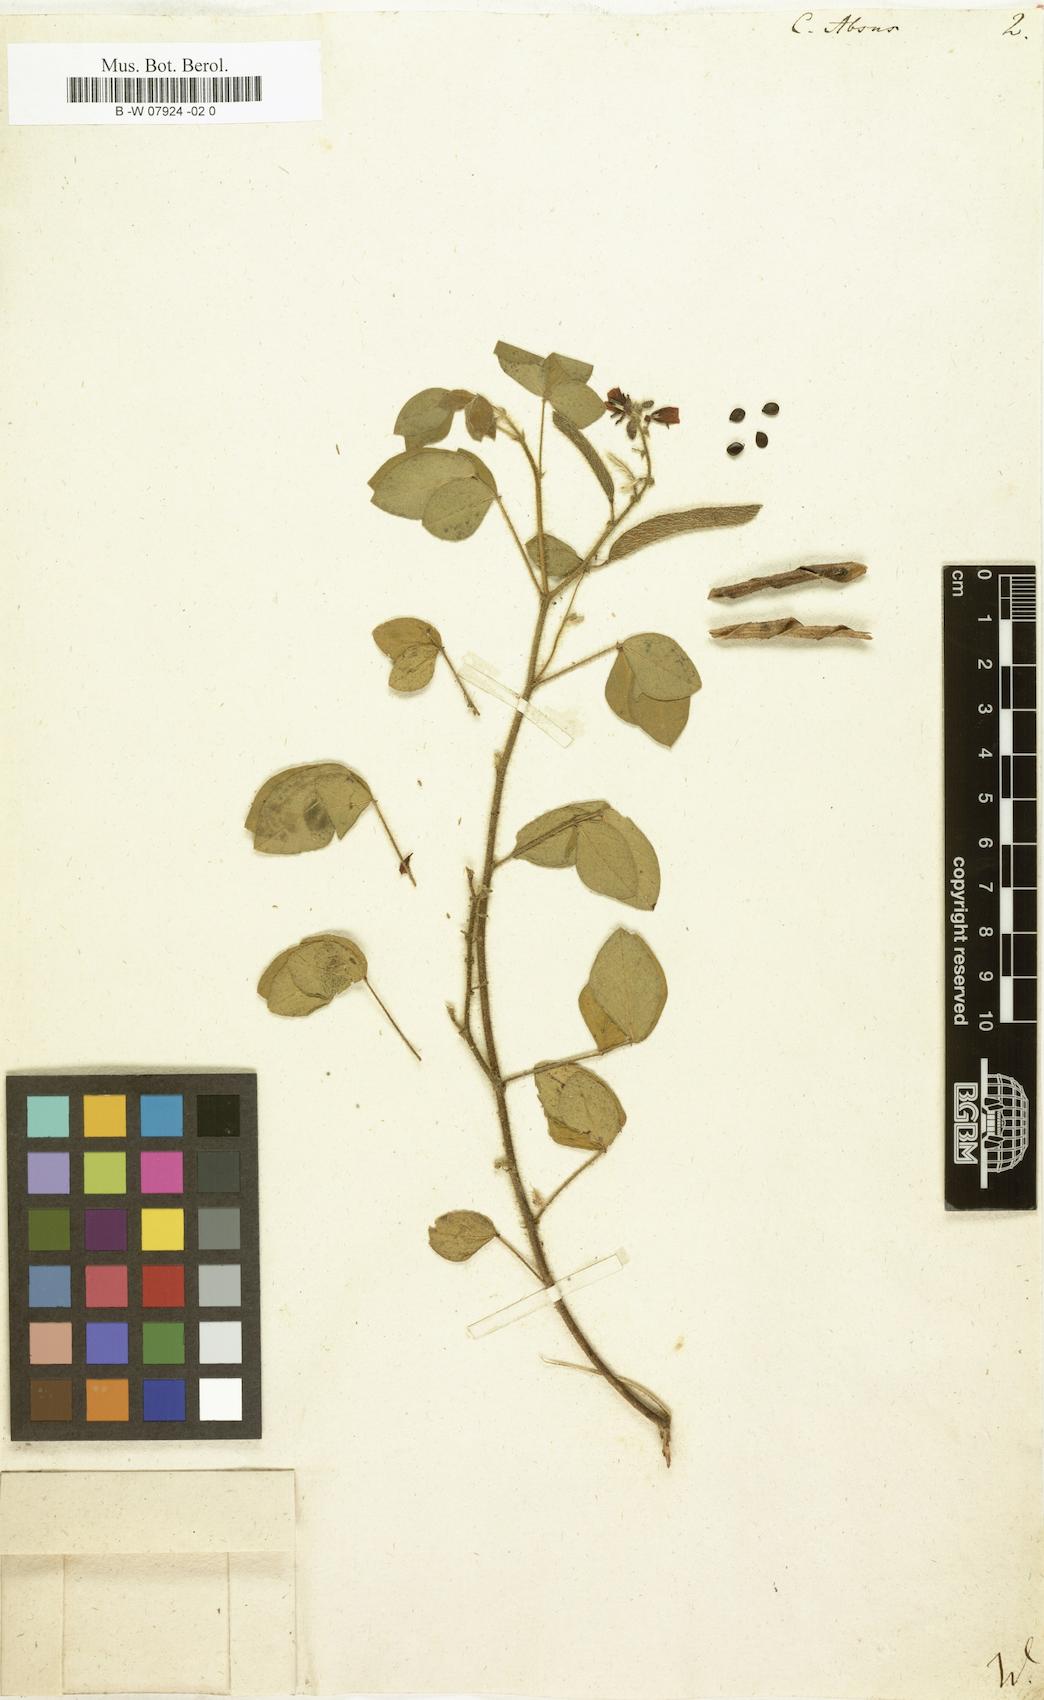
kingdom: Plantae
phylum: Tracheophyta
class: Magnoliopsida
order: Fabales
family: Fabaceae
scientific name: Fabaceae
